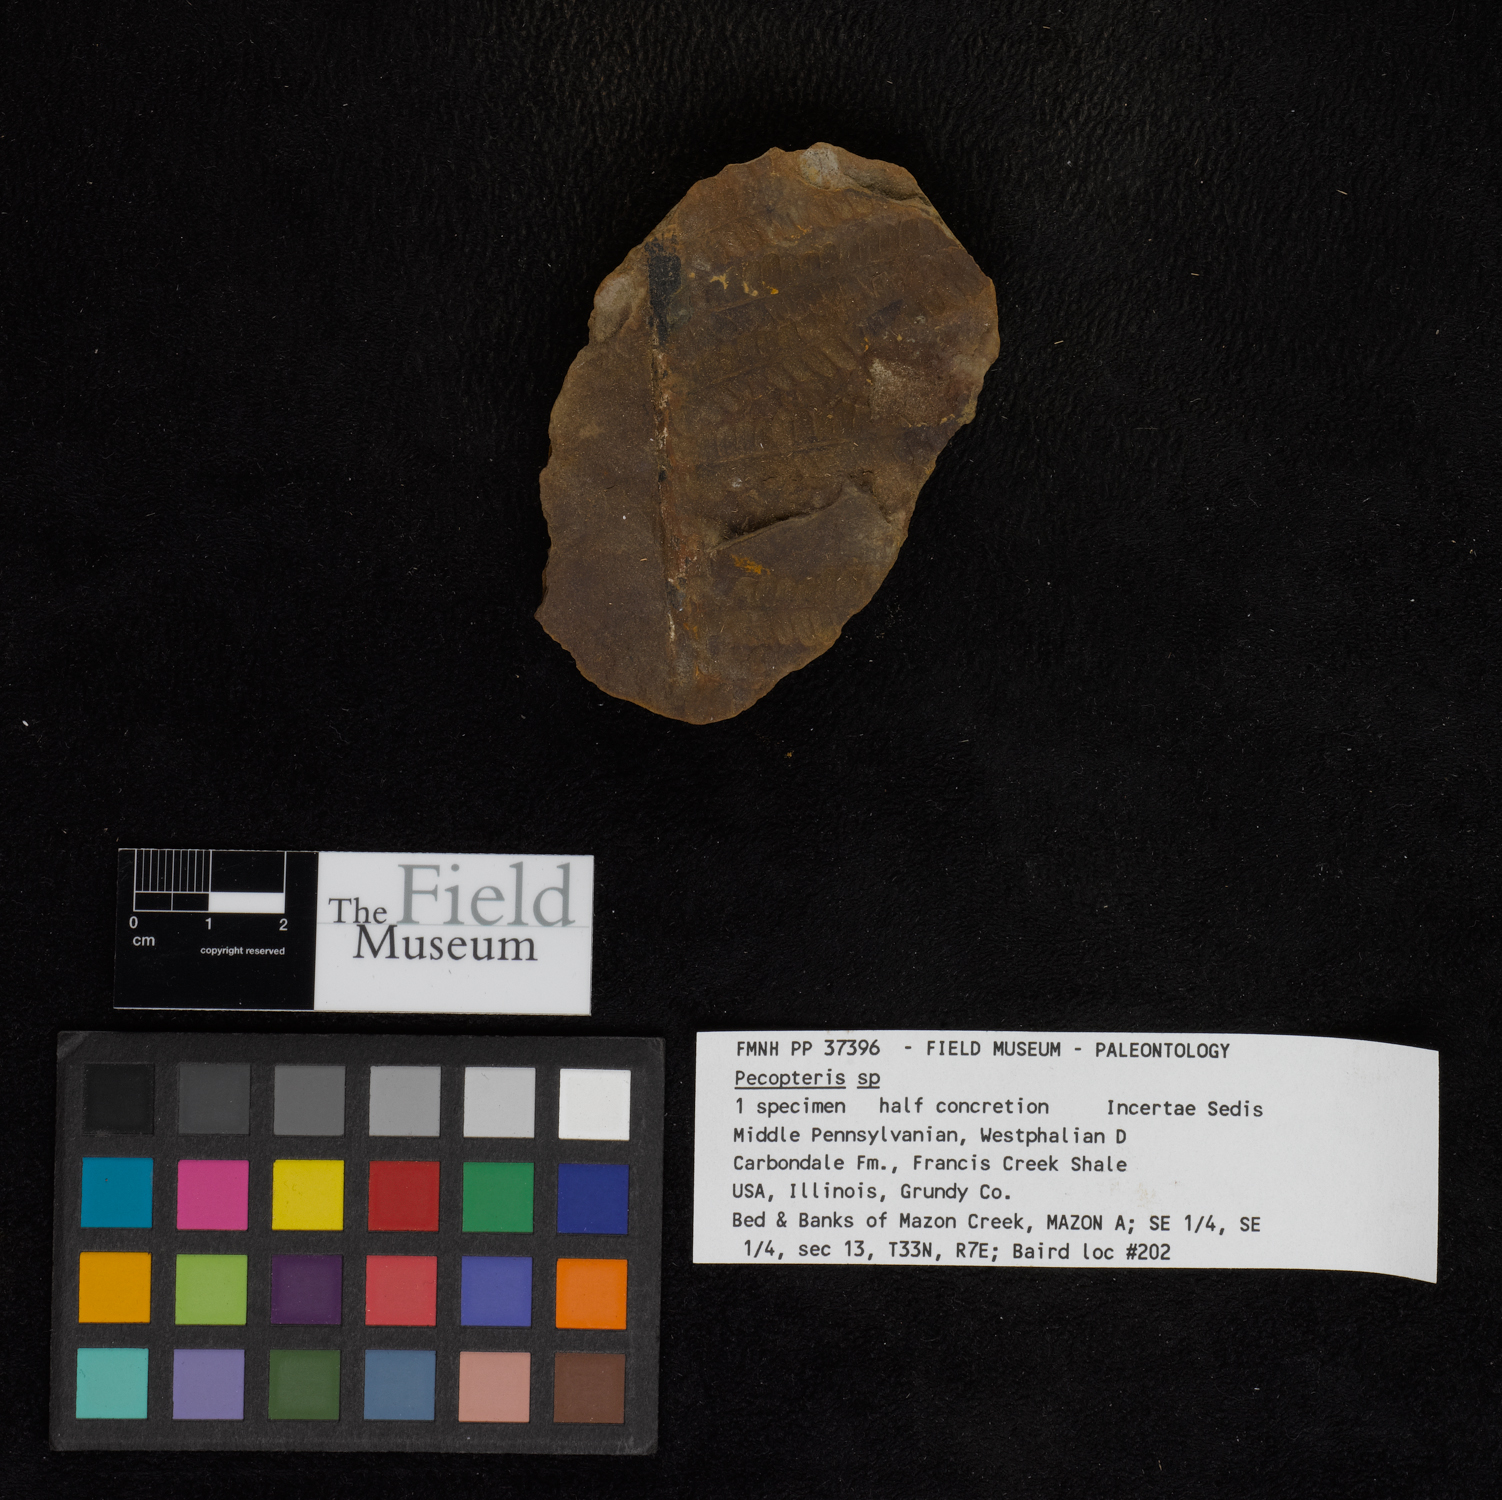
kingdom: Plantae
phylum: Tracheophyta
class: Polypodiopsida
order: Marattiales
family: Asterothecaceae
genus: Pecopteris
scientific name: Pecopteris
